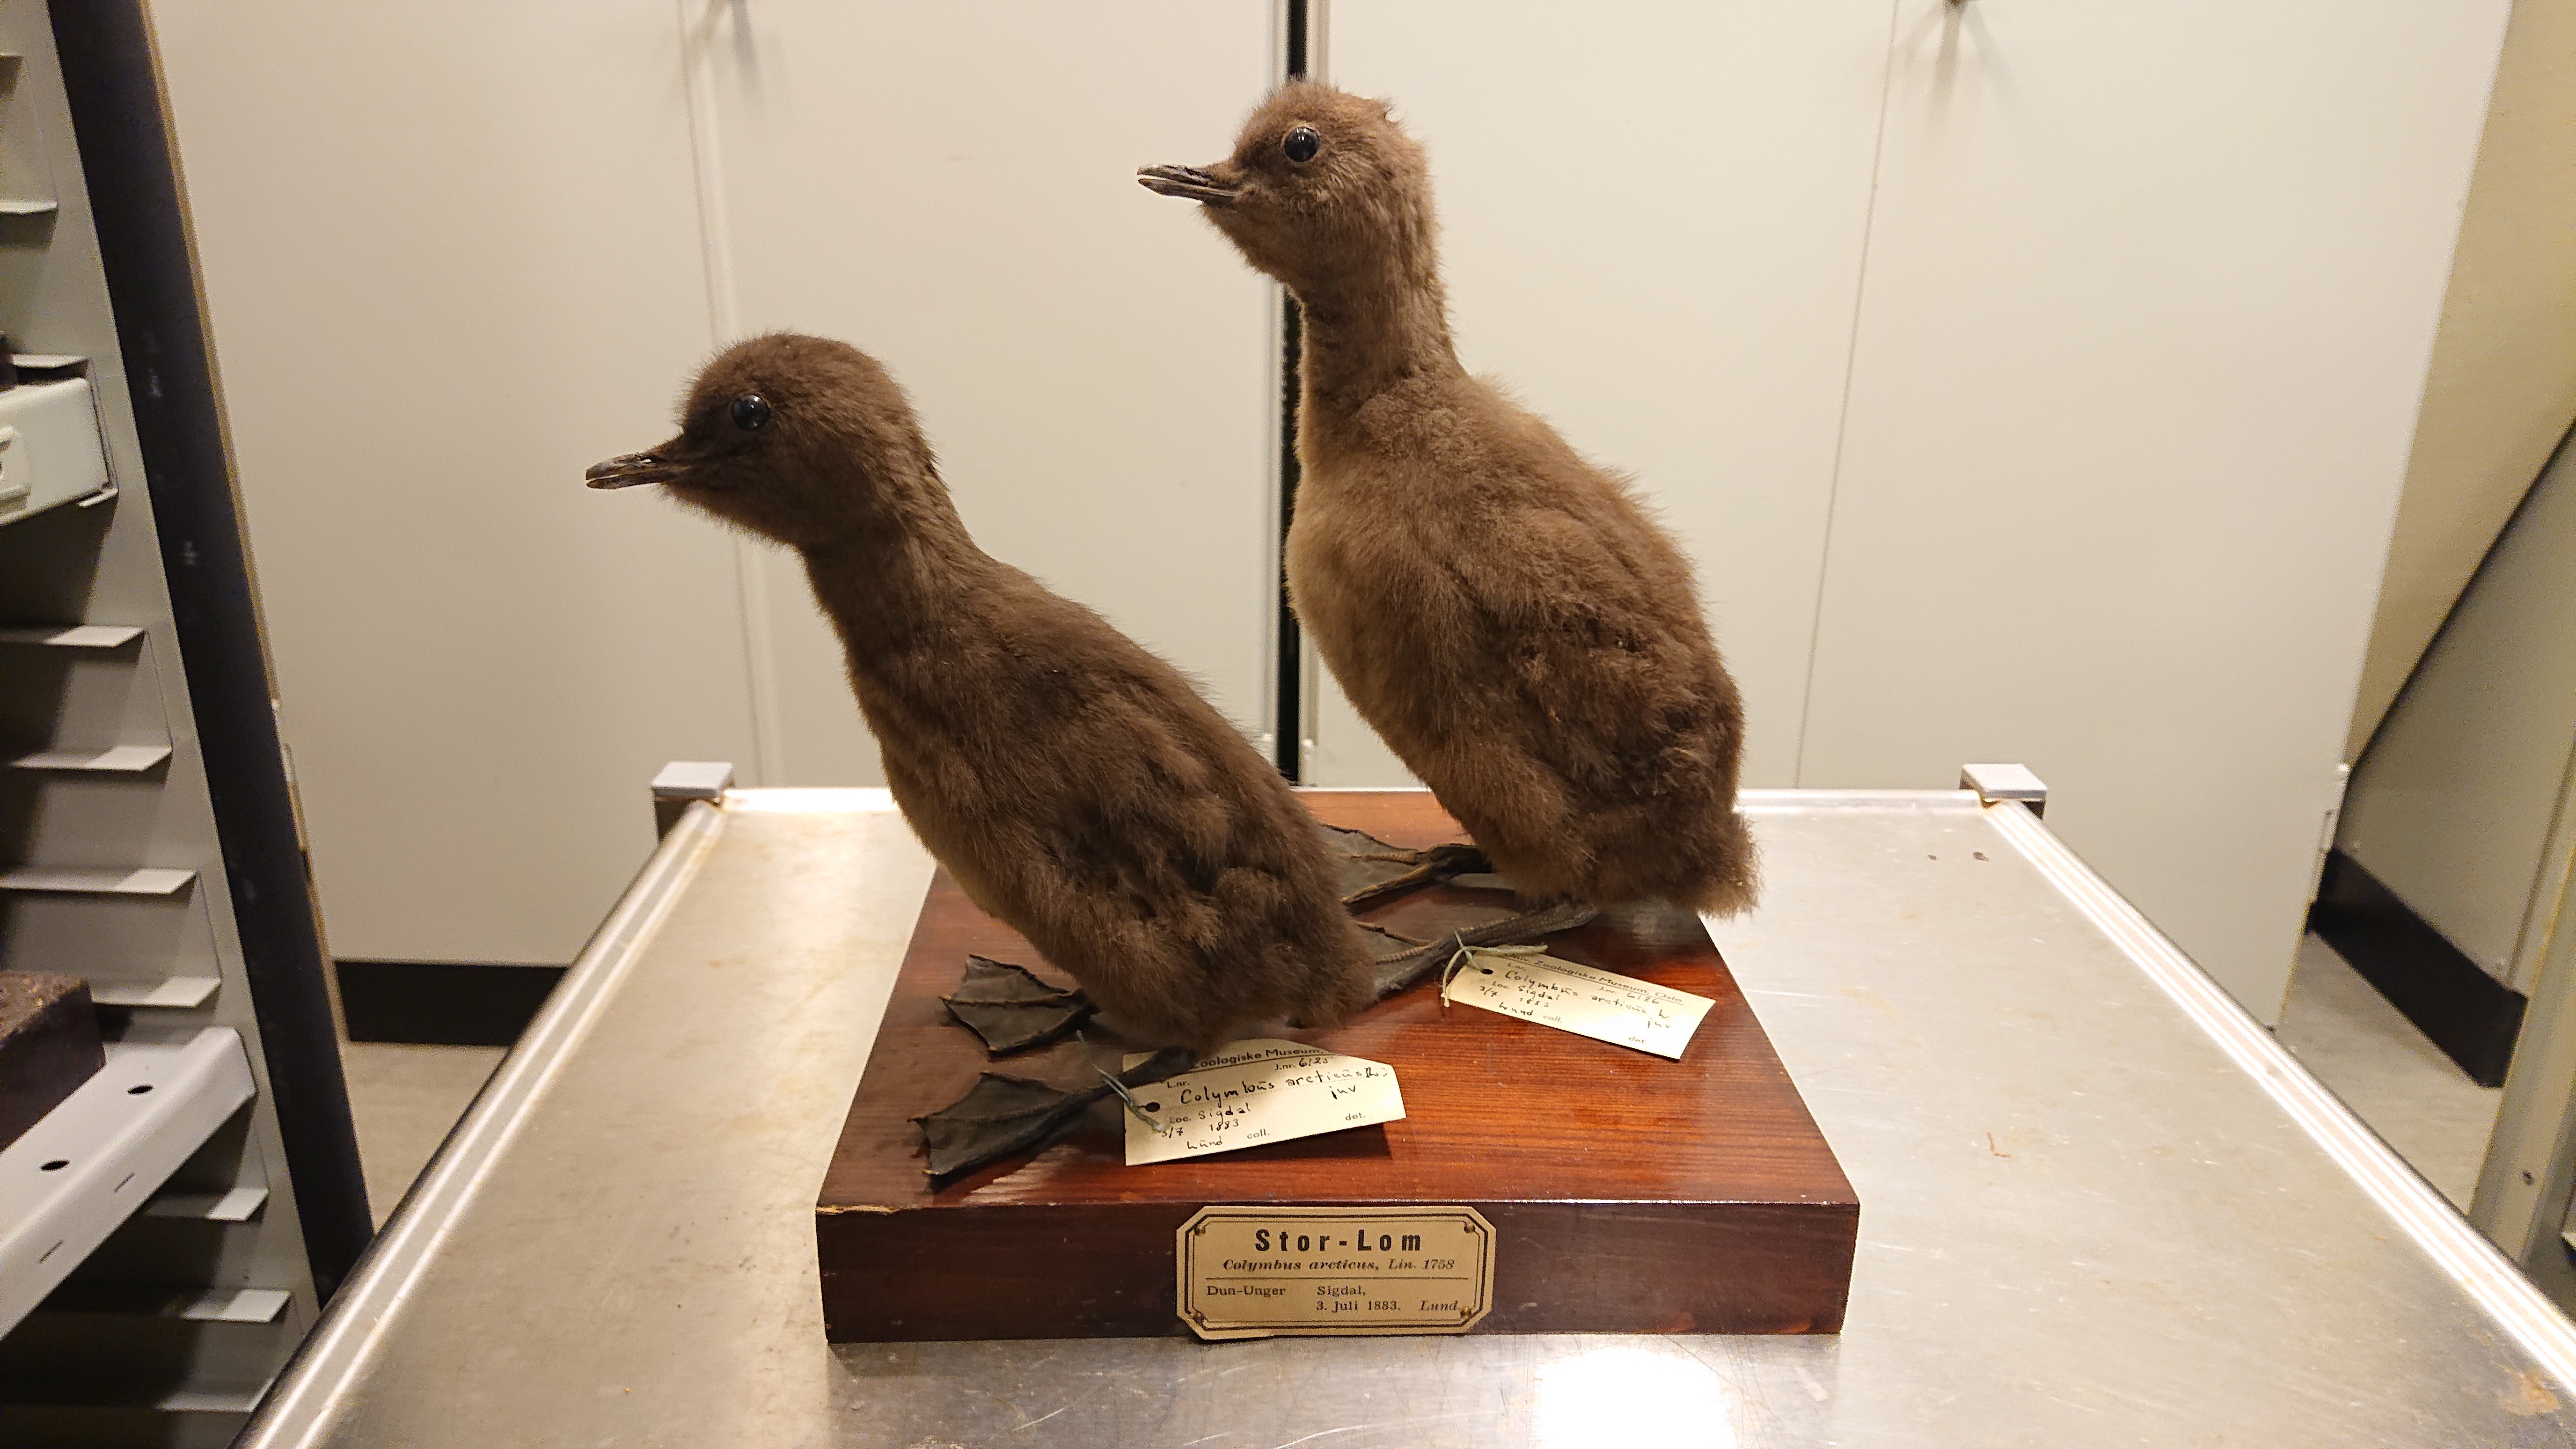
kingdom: Animalia
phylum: Chordata
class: Aves
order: Gaviiformes
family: Gaviidae
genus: Gavia
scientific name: Gavia arctica
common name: Black-throated loon
